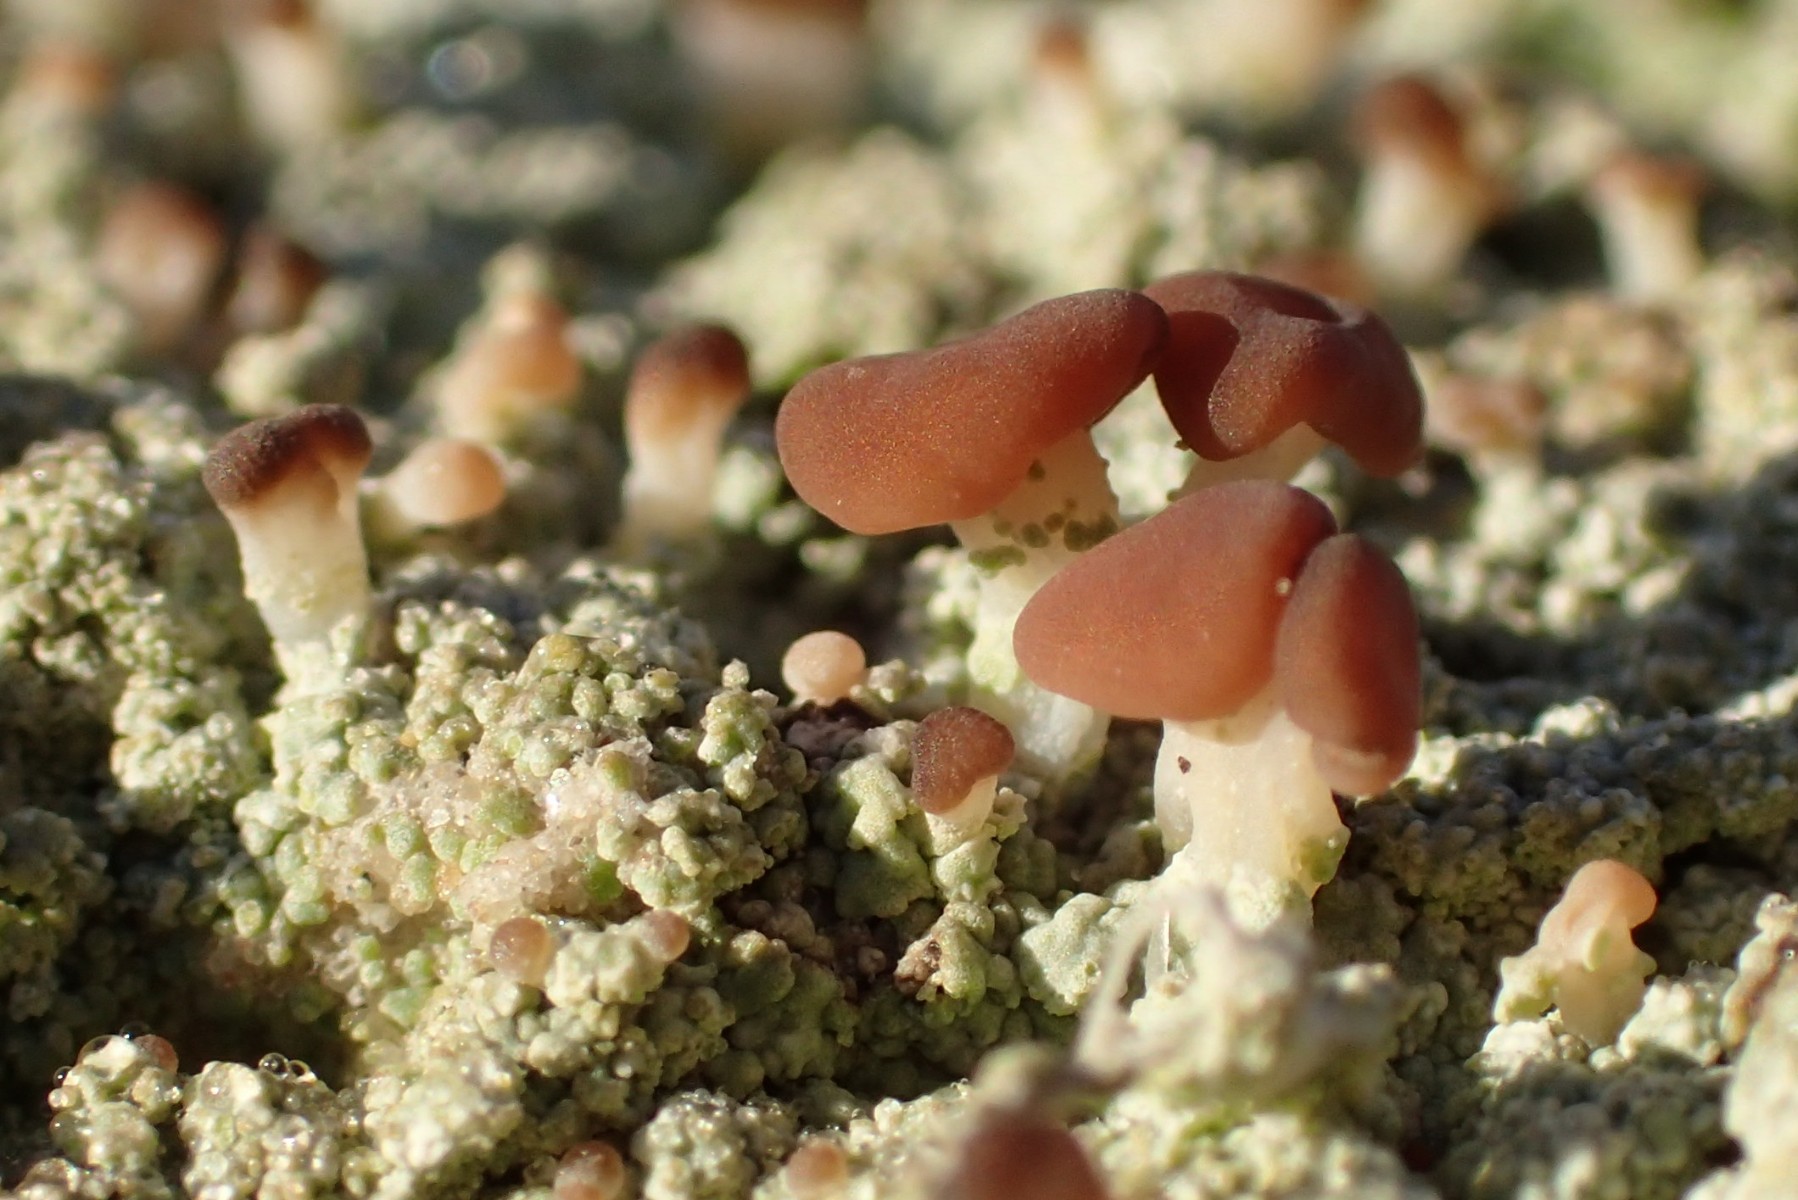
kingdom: Fungi
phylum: Ascomycota
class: Lecanoromycetes
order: Baeomycetales
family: Baeomycetaceae
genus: Baeomyces
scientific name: Baeomyces rufus
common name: rødbrun svampelav
